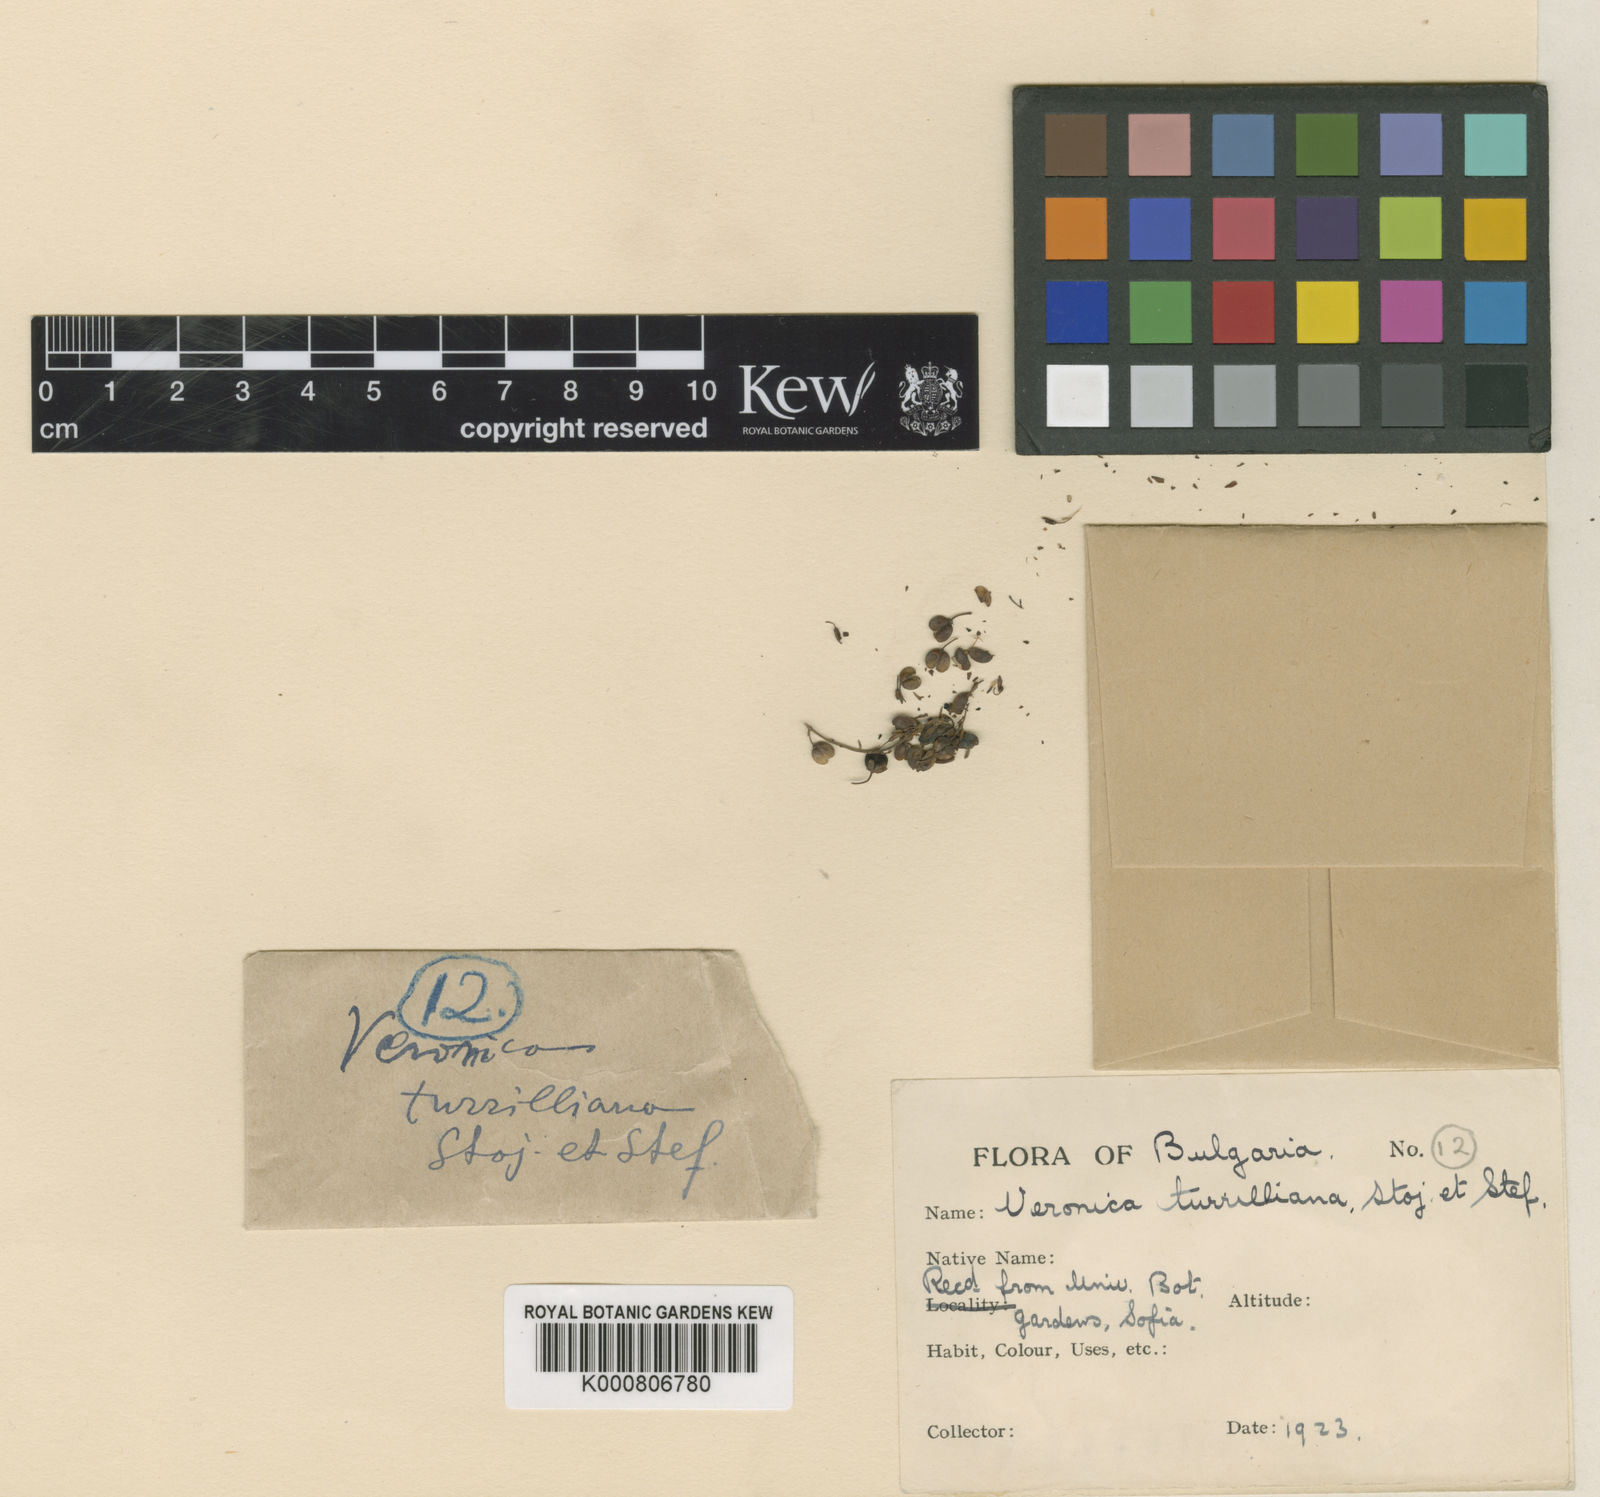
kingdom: Plantae
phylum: Tracheophyta
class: Magnoliopsida
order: Lamiales
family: Plantaginaceae
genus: Veronica
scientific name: Veronica turrilliana
